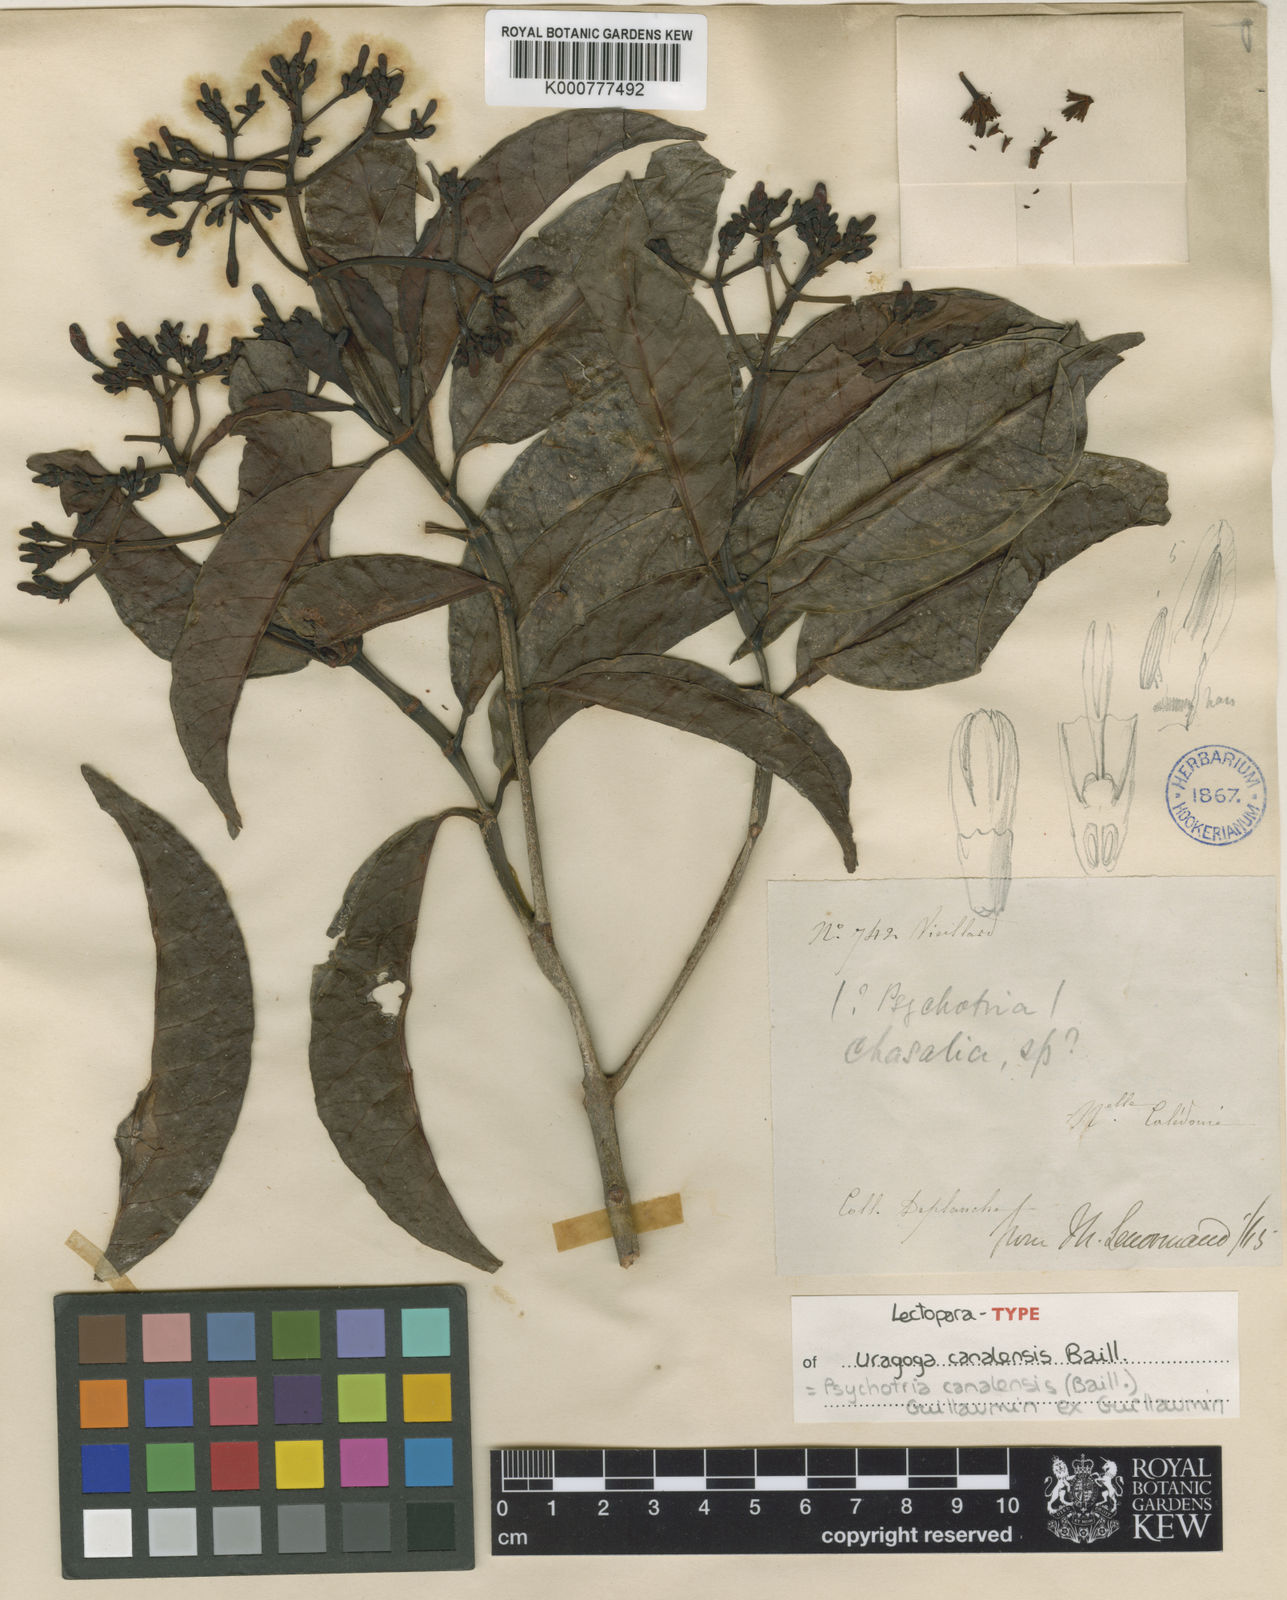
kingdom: Plantae
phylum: Tracheophyta
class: Magnoliopsida
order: Gentianales
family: Rubiaceae
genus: Psychotria
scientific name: Psychotria canalensis
